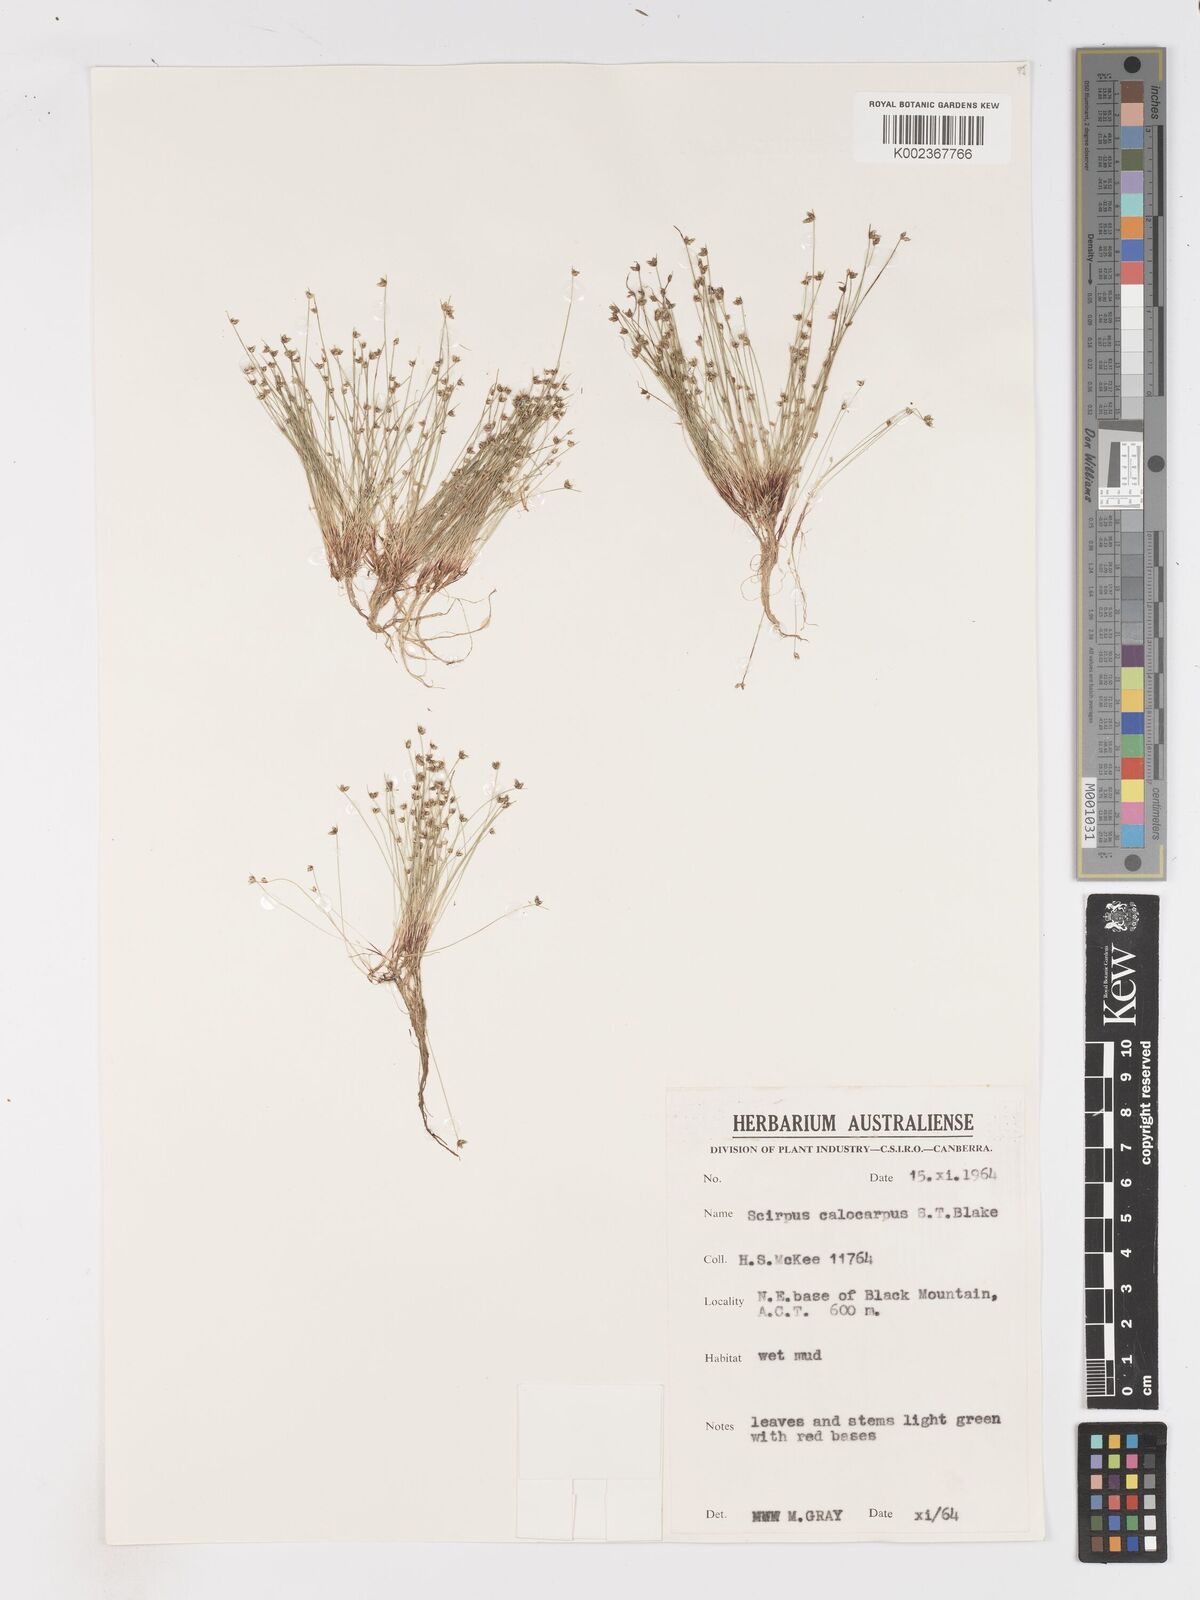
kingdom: Plantae
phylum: Tracheophyta
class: Liliopsida
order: Poales
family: Cyperaceae
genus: Isolepis
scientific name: Isolepis multicaulis
